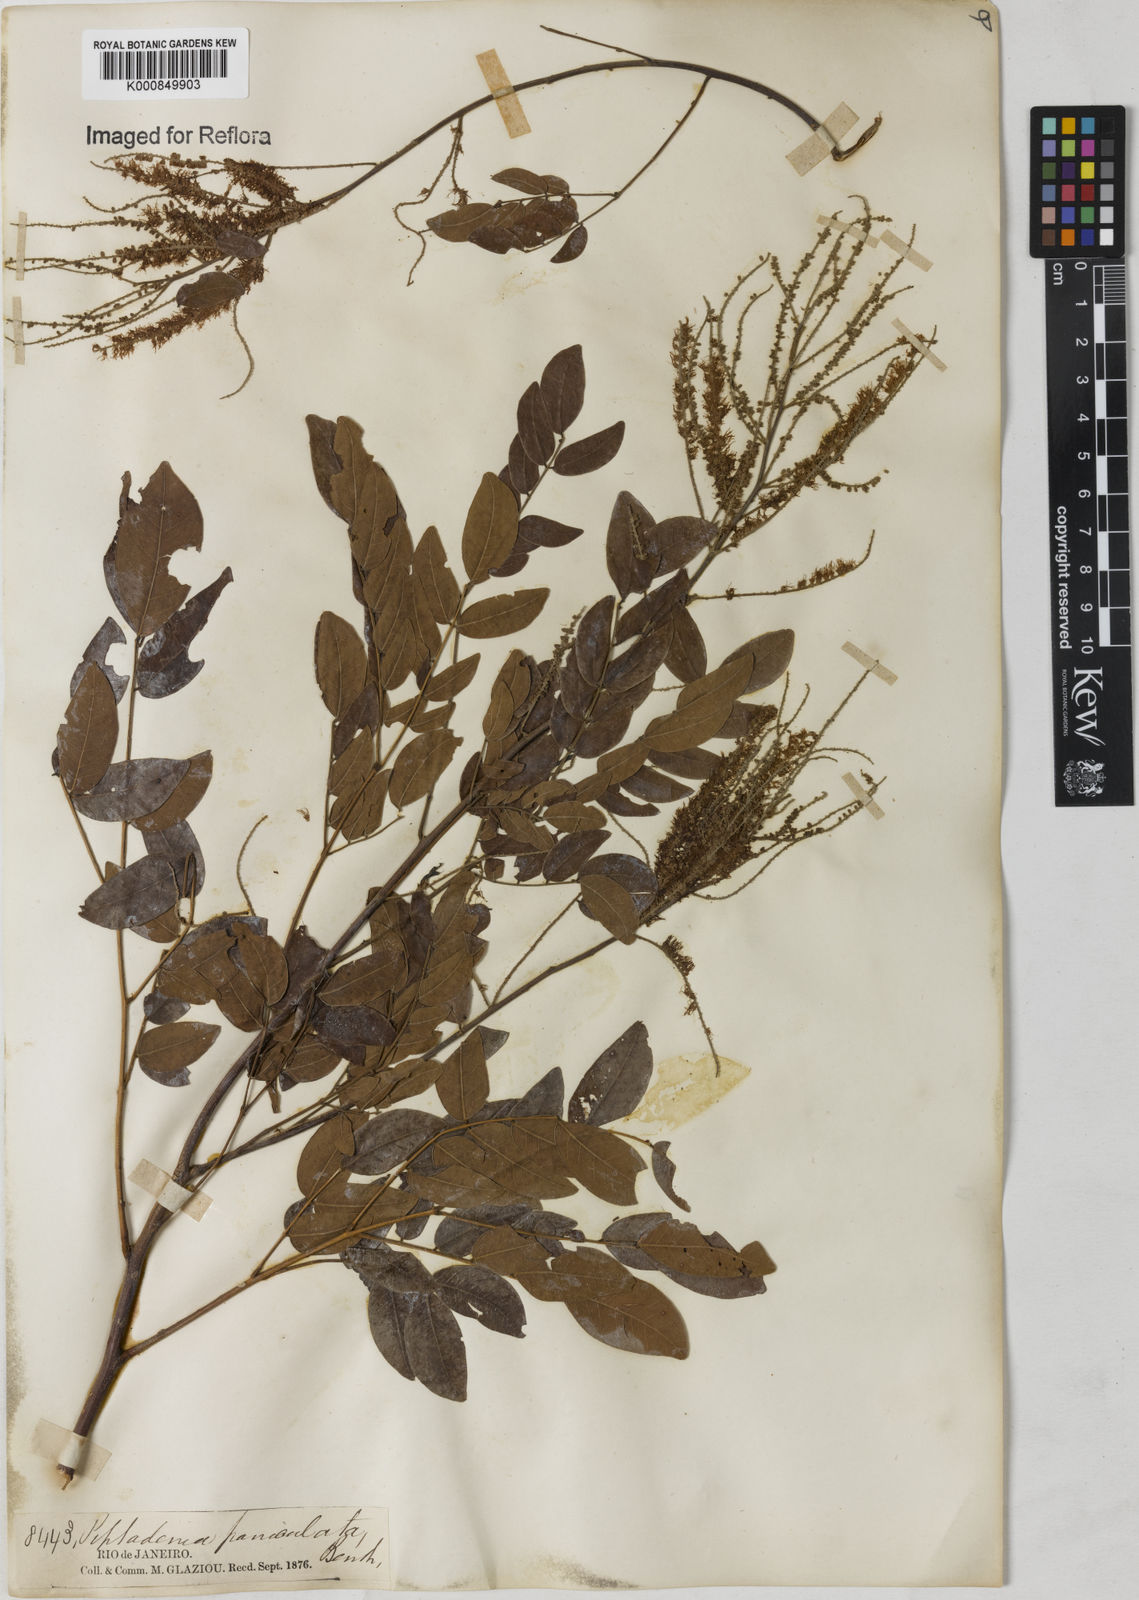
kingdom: Plantae
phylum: Tracheophyta
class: Magnoliopsida
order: Fabales
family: Fabaceae
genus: Piptadenia
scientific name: Piptadenia paniculata
